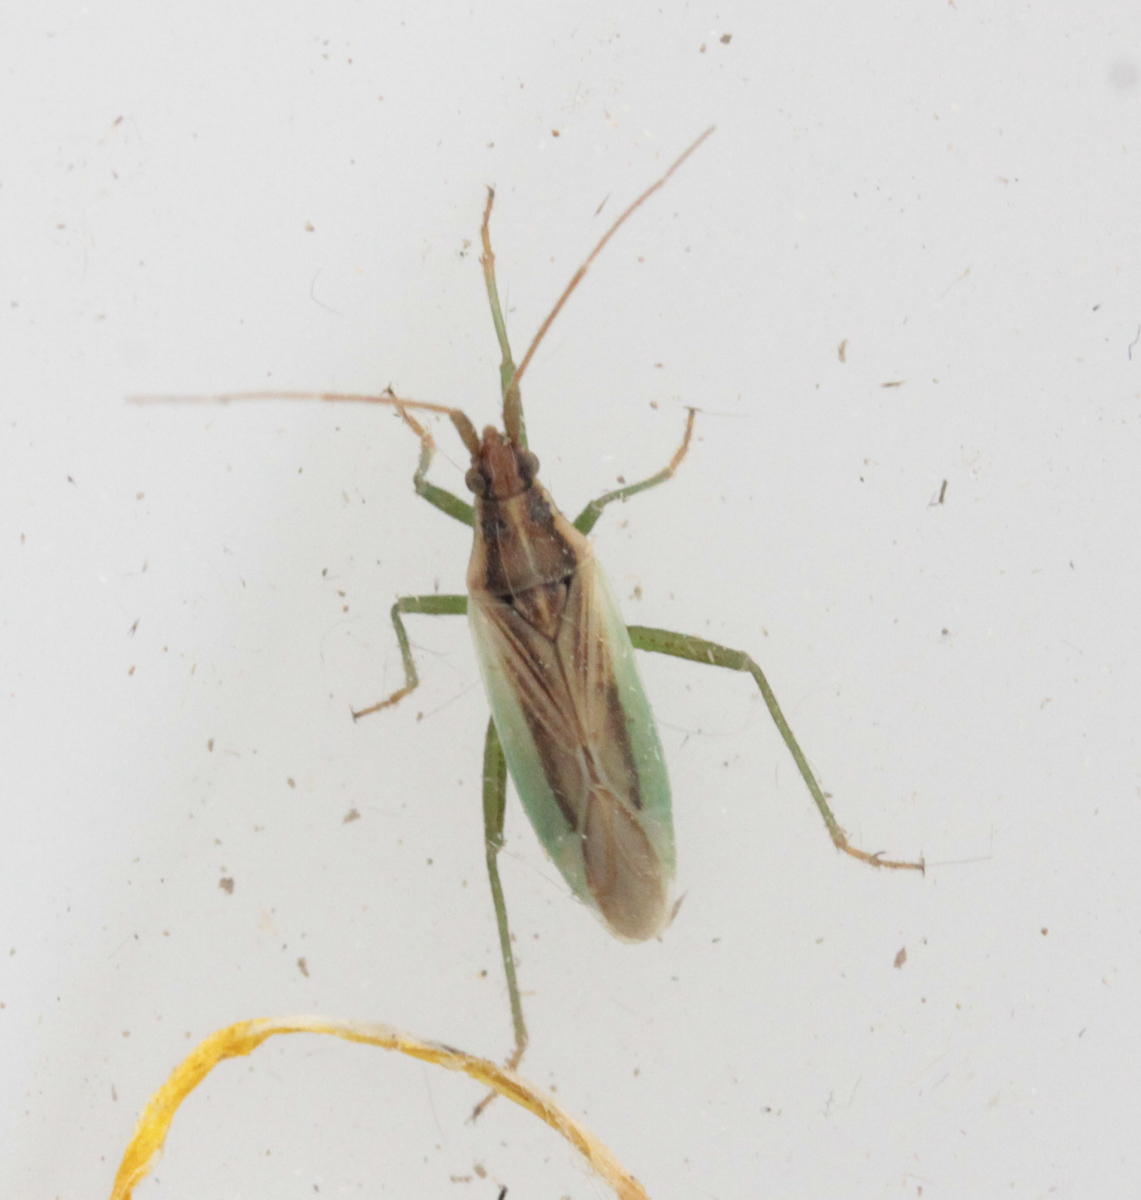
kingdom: Animalia
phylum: Arthropoda
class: Insecta
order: Hemiptera
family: Miridae
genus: Stenodema
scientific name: Stenodema holsata
